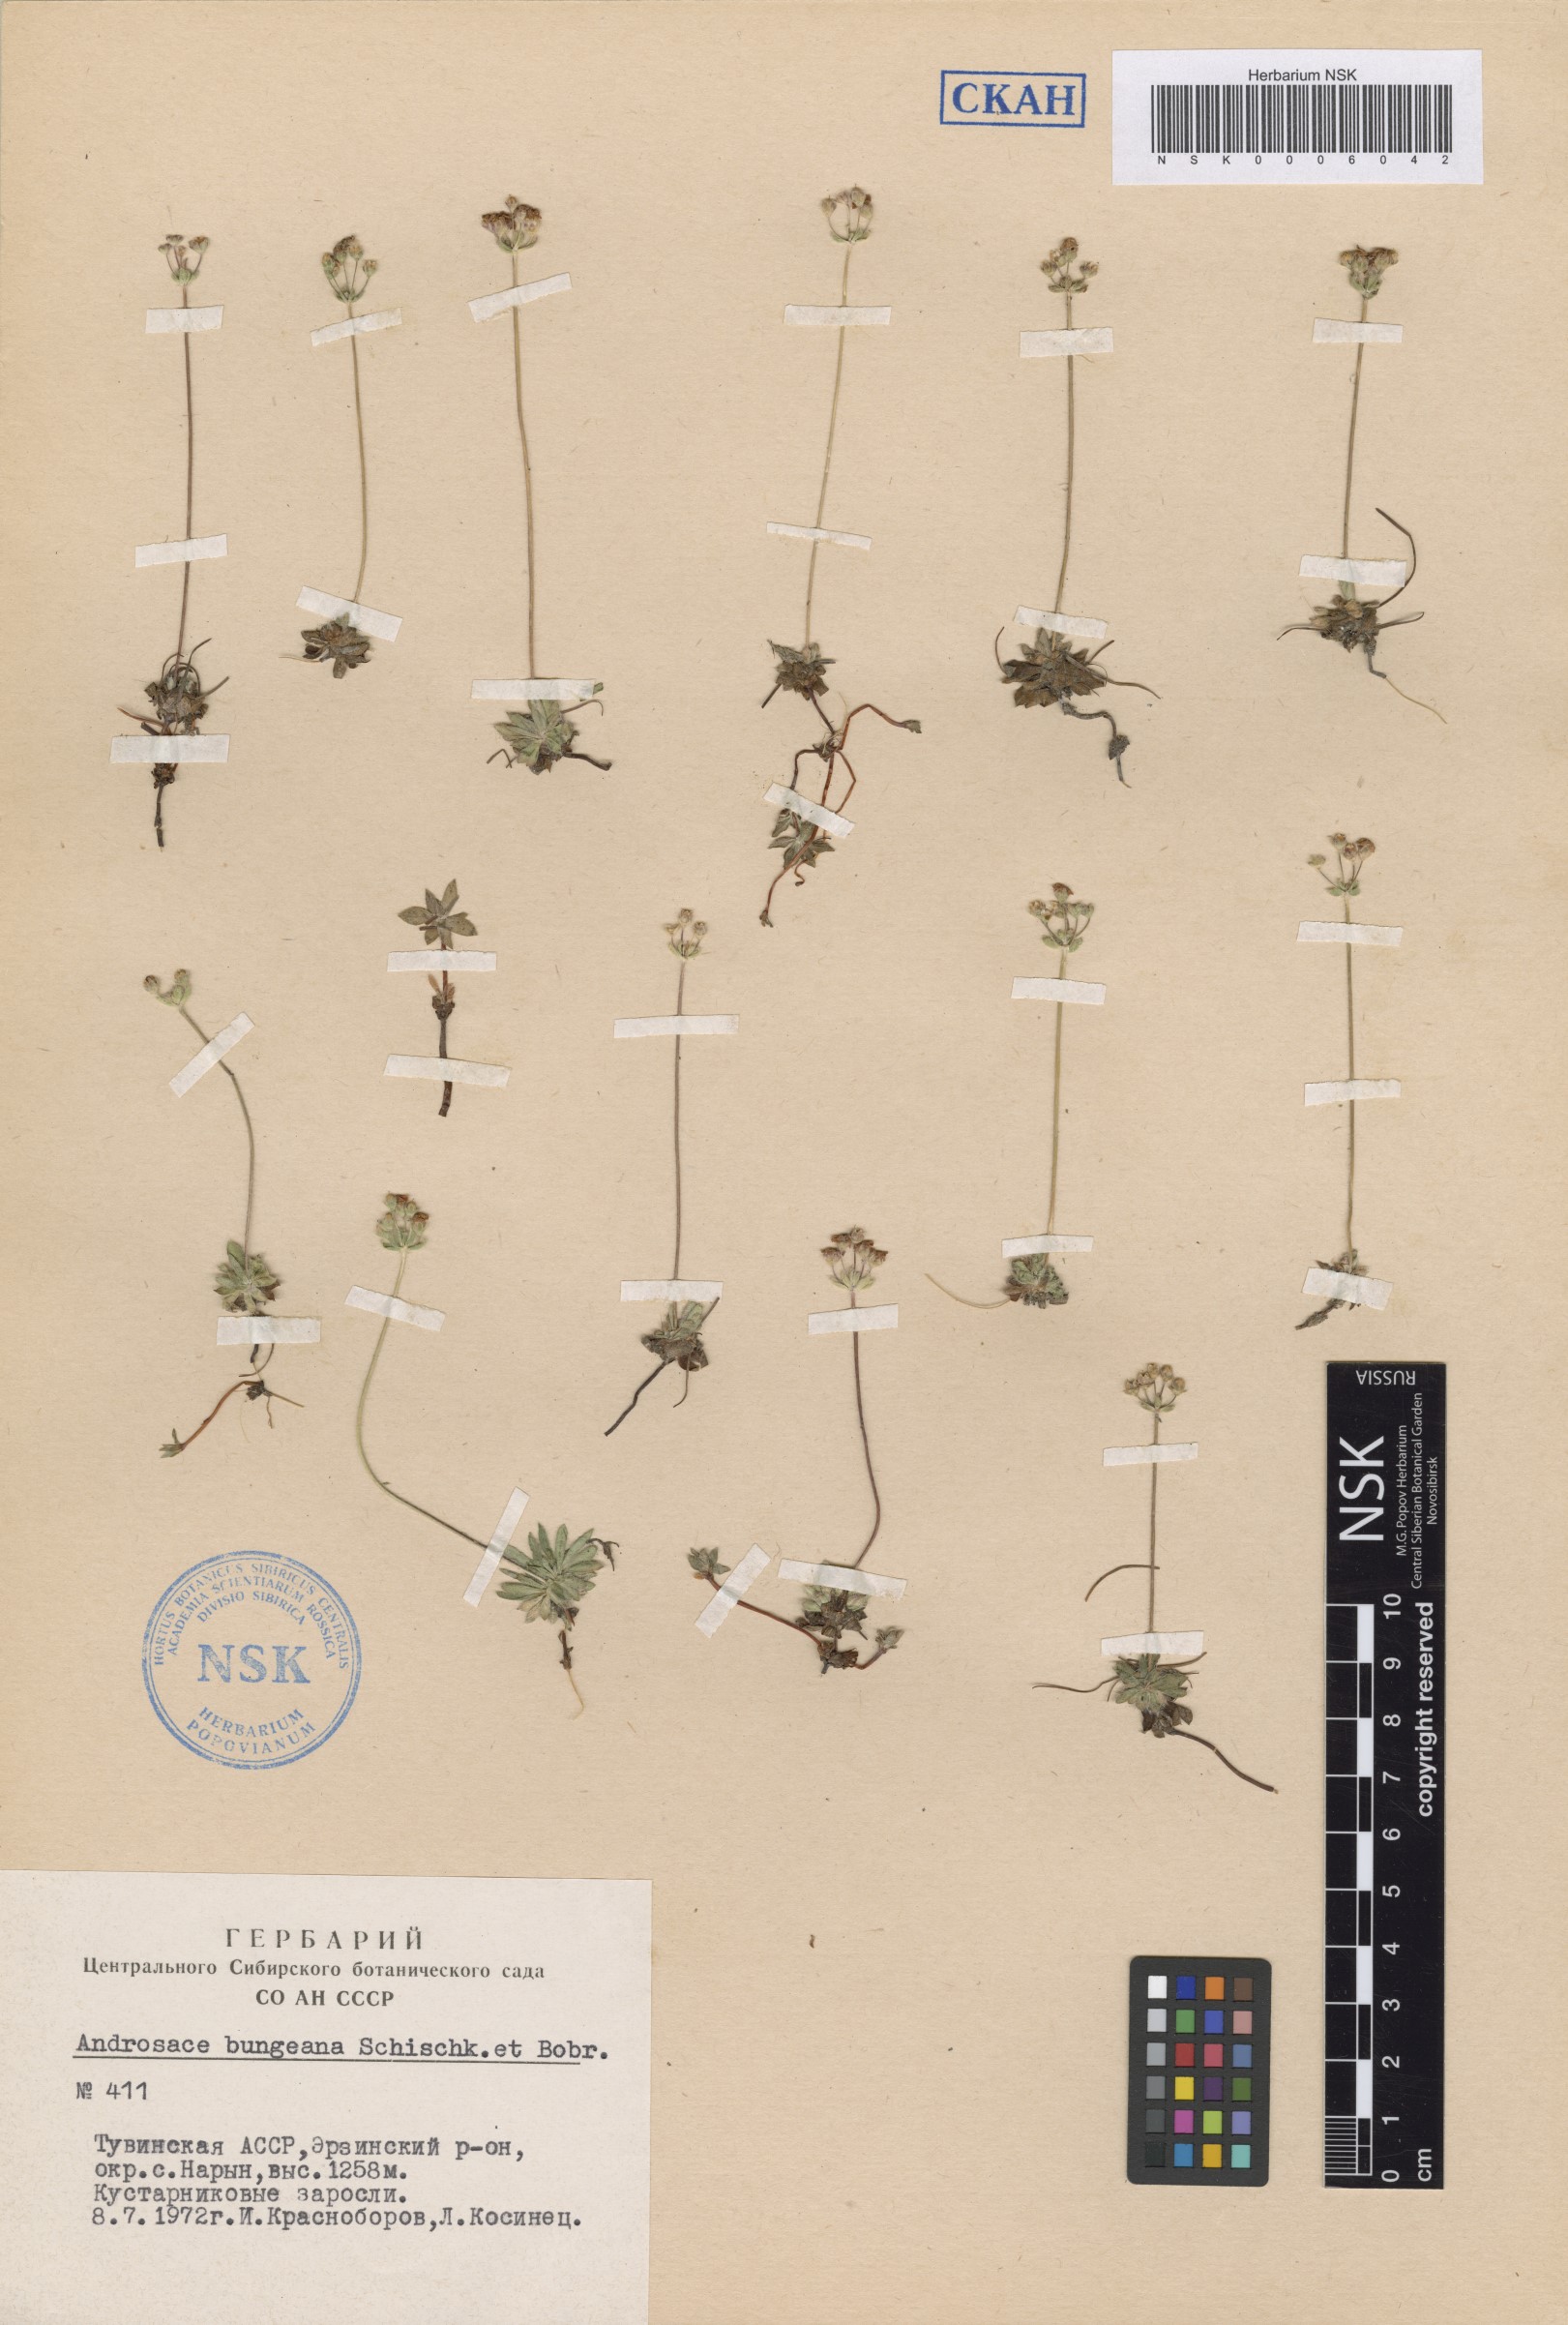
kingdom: Plantae
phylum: Tracheophyta
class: Magnoliopsida
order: Ericales
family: Primulaceae
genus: Androsace
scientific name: Androsace bungeana
